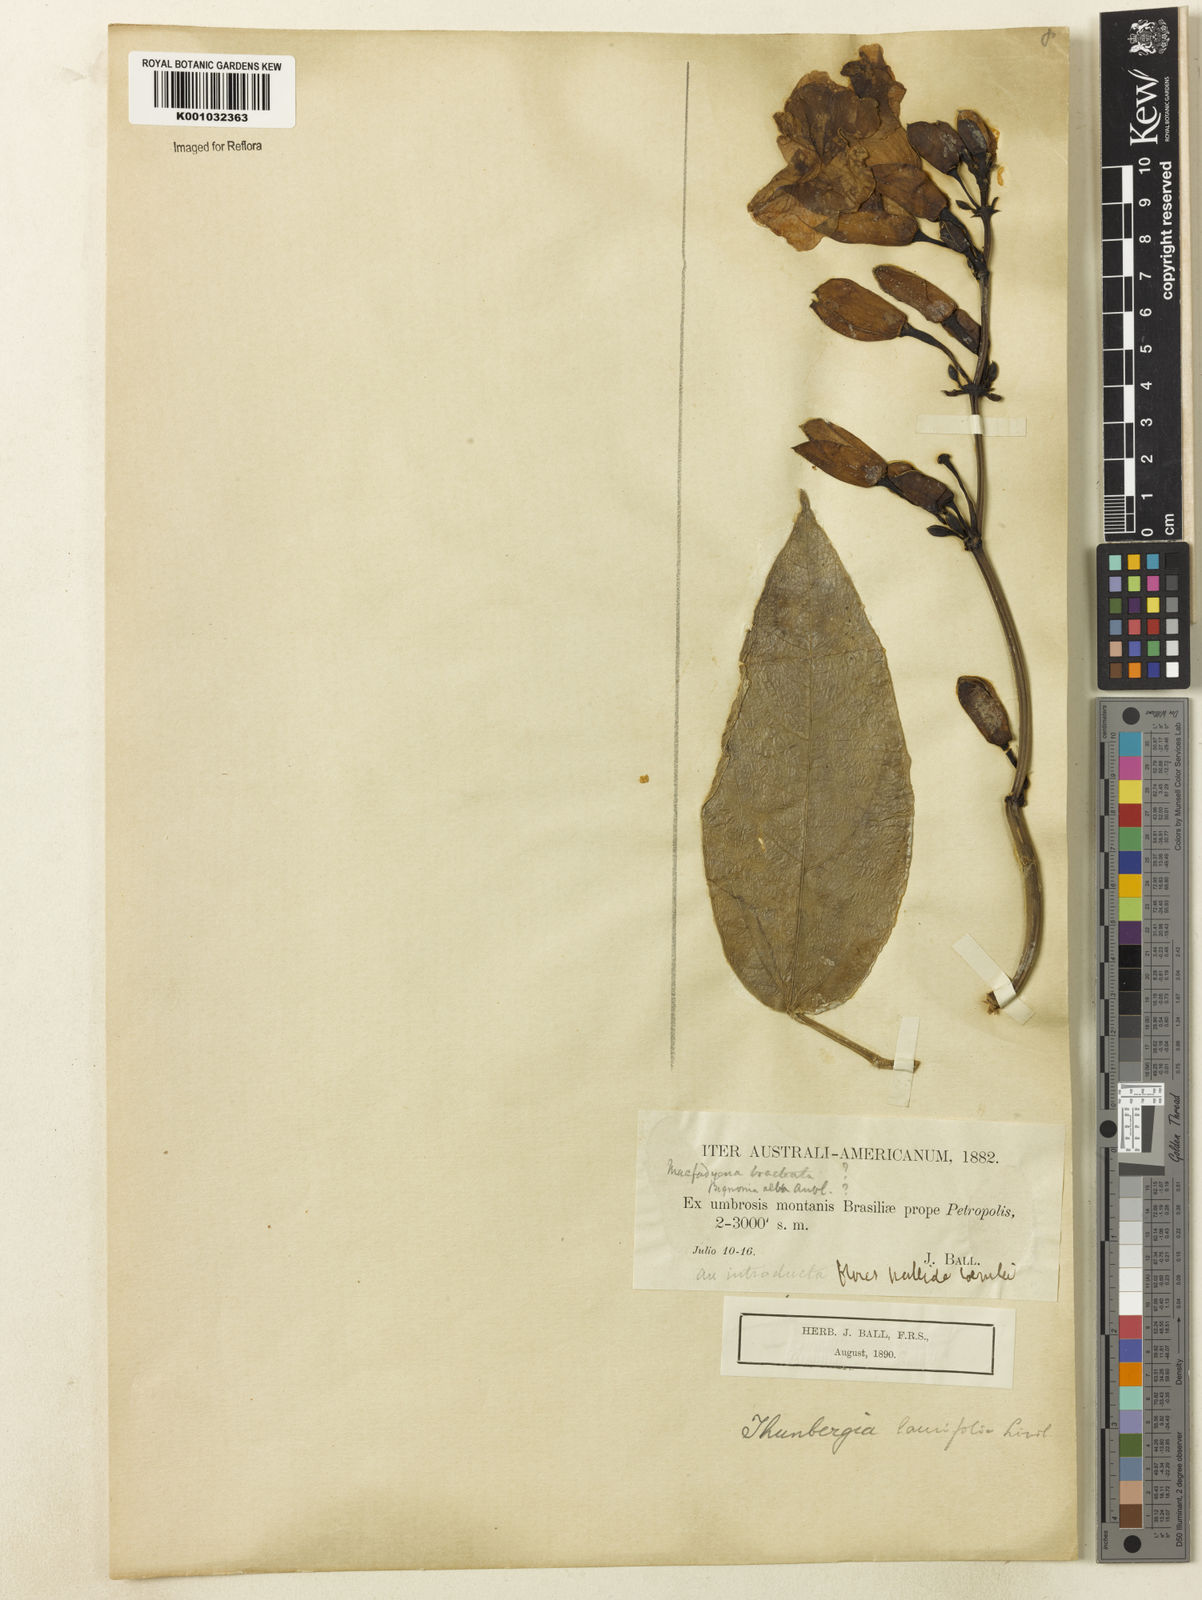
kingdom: Plantae
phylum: Tracheophyta
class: Magnoliopsida
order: Lamiales
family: Acanthaceae
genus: Thunbergia
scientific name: Thunbergia grandiflora
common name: Bengal trumpet
